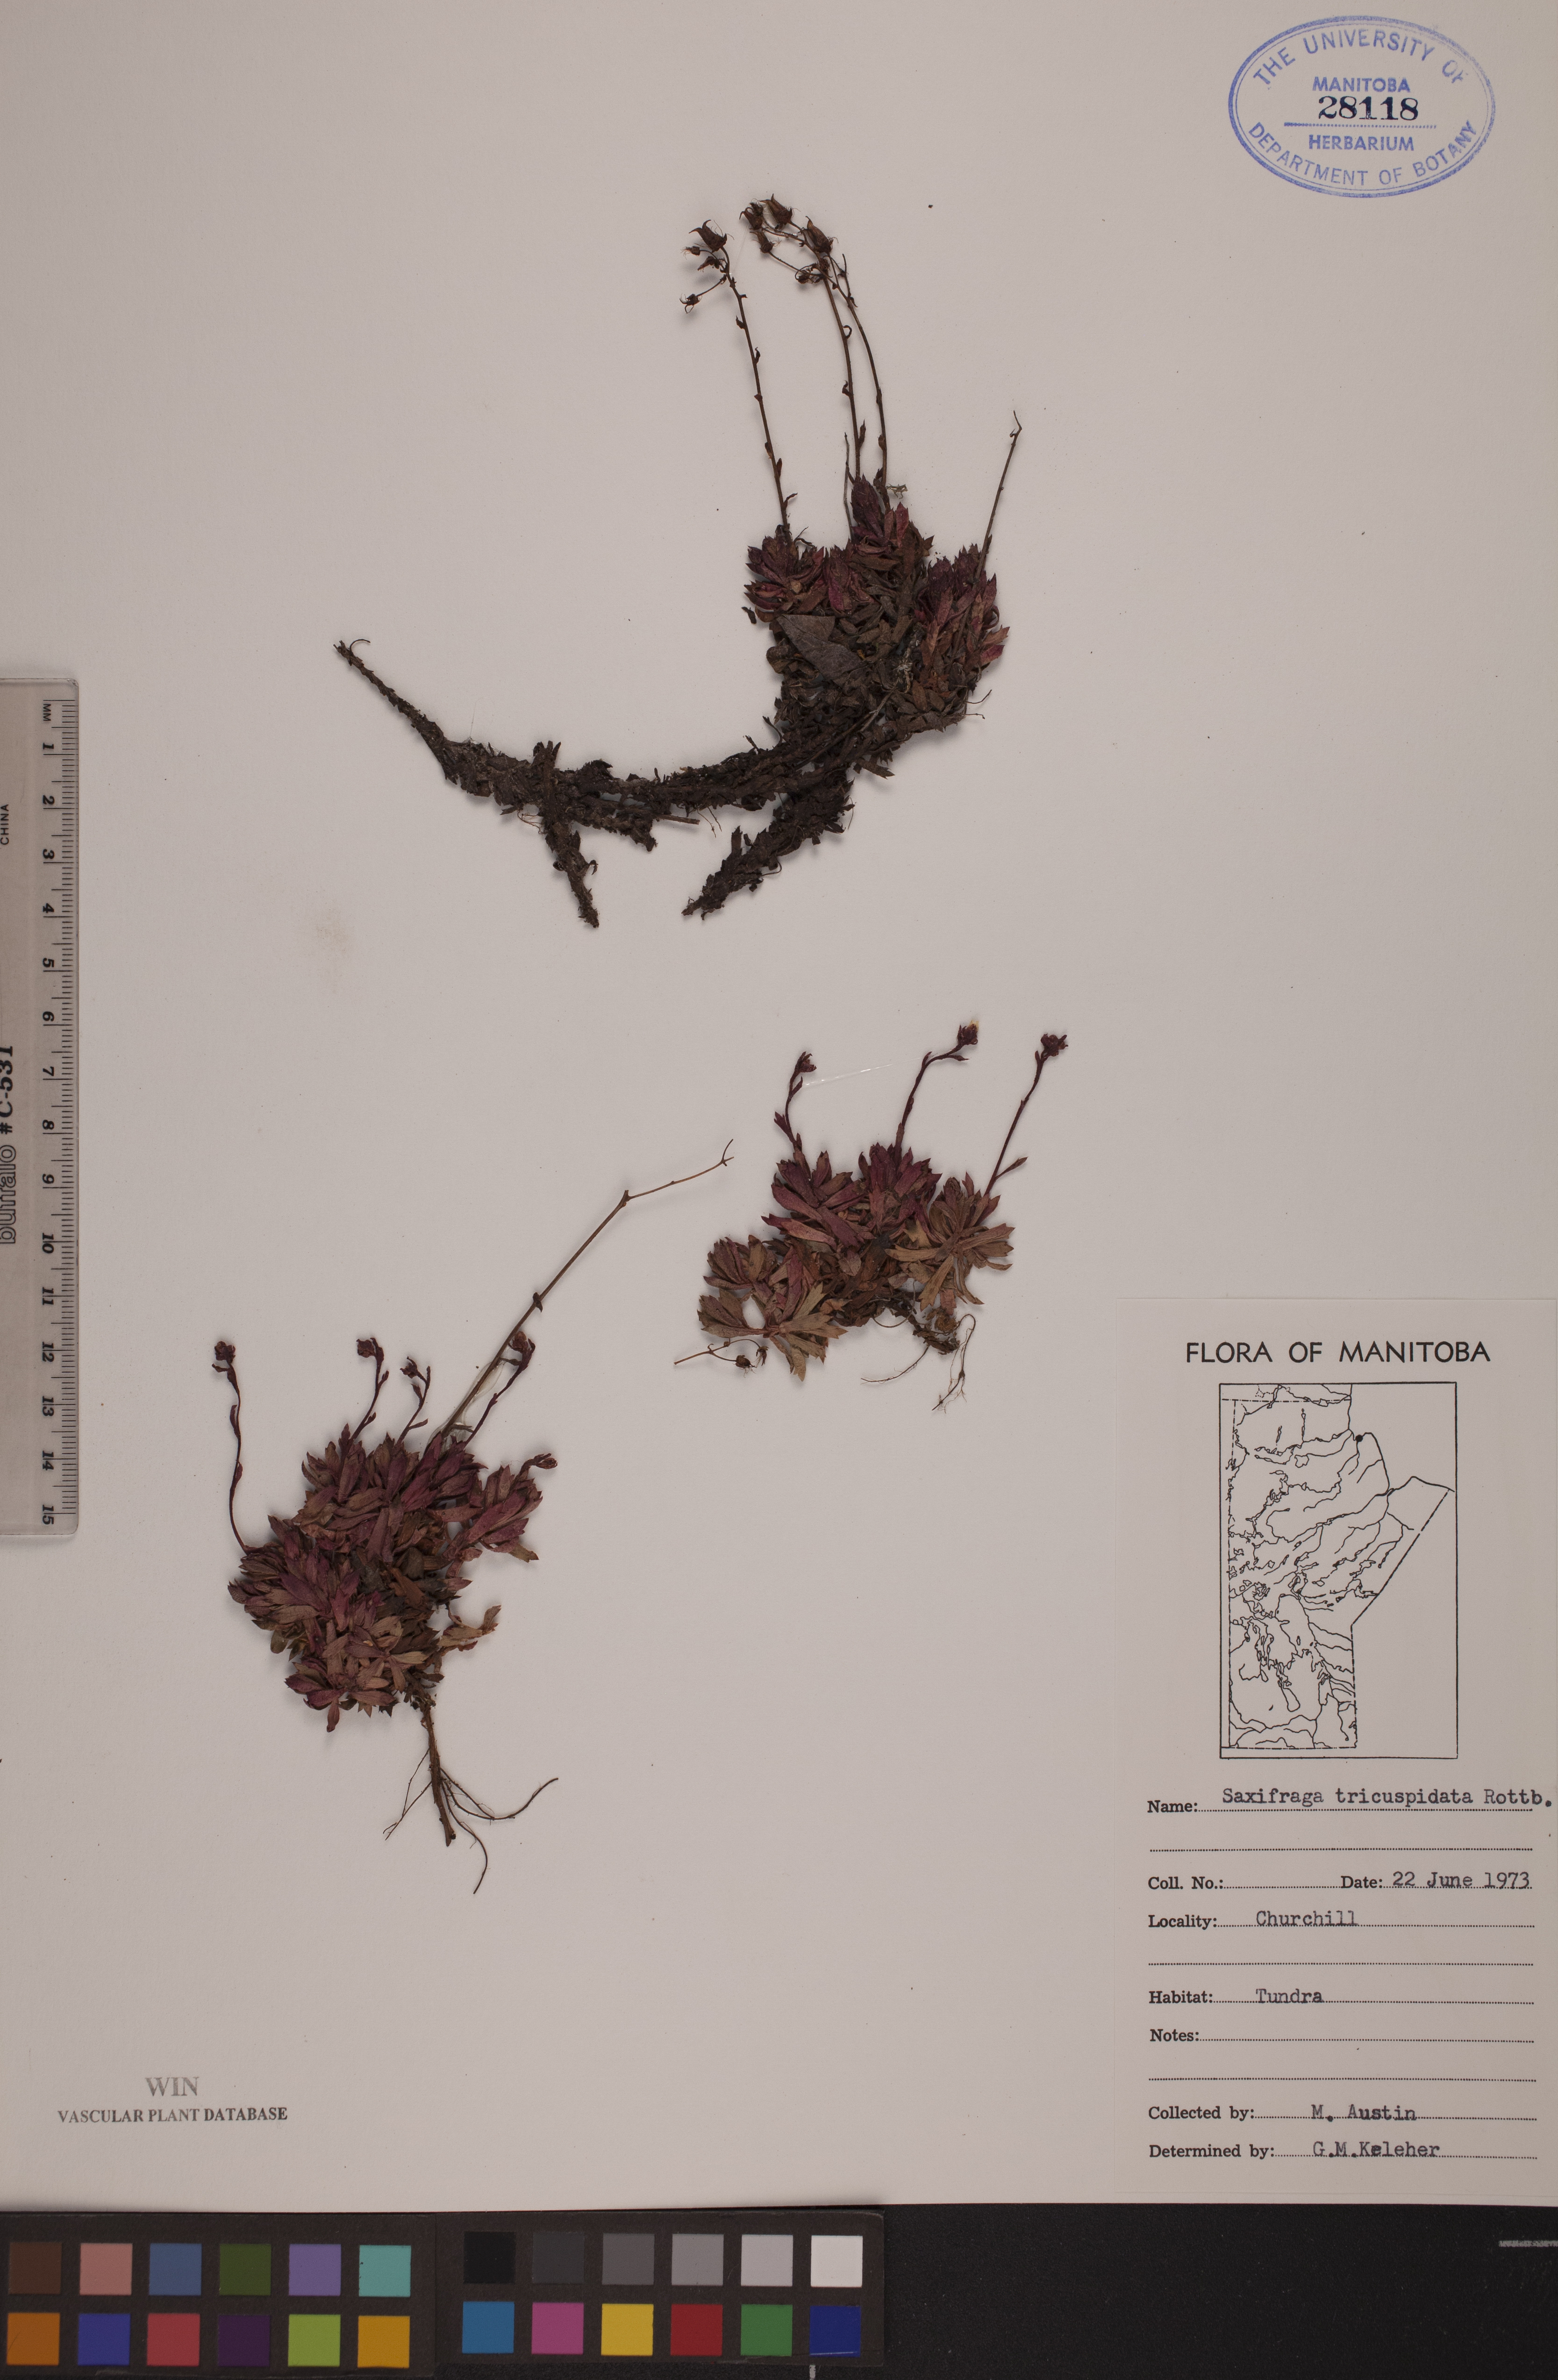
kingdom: Plantae
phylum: Tracheophyta
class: Magnoliopsida
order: Saxifragales
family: Saxifragaceae
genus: Saxifraga
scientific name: Saxifraga tricuspidata
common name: Prickly saxifrage
